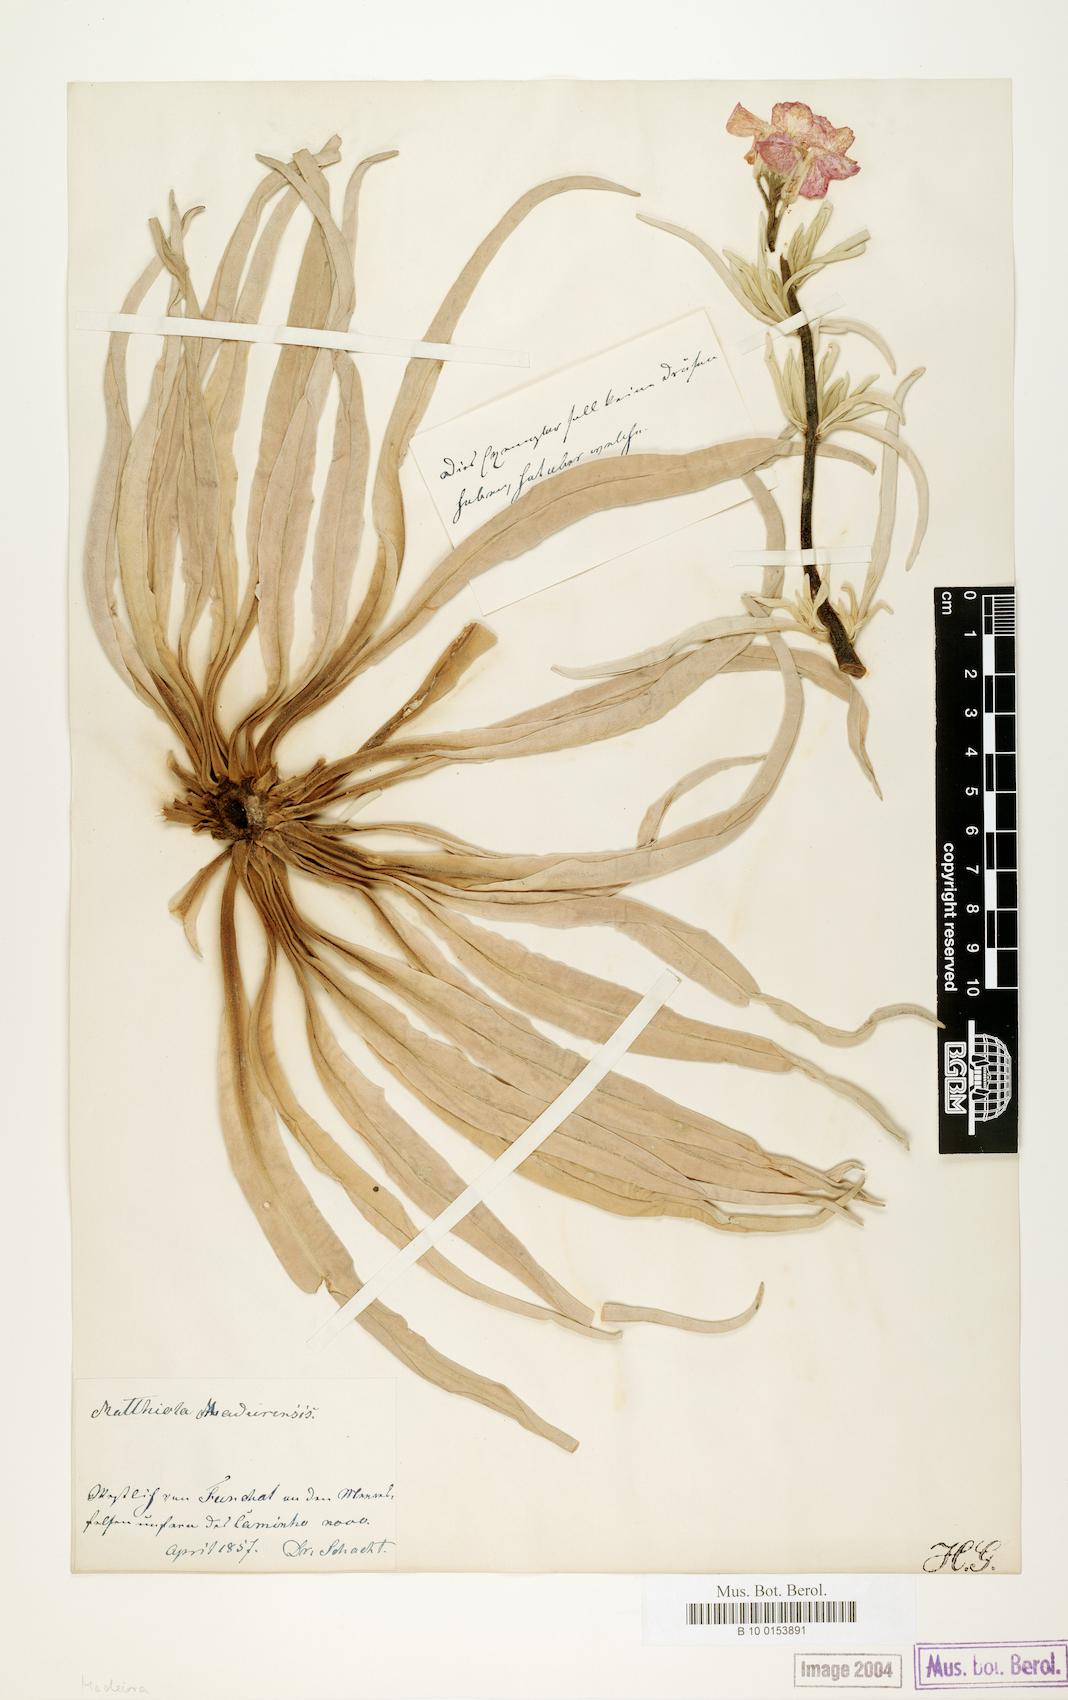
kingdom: Plantae
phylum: Tracheophyta
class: Magnoliopsida
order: Brassicales
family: Brassicaceae
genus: Matthiola
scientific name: Matthiola maderensis
